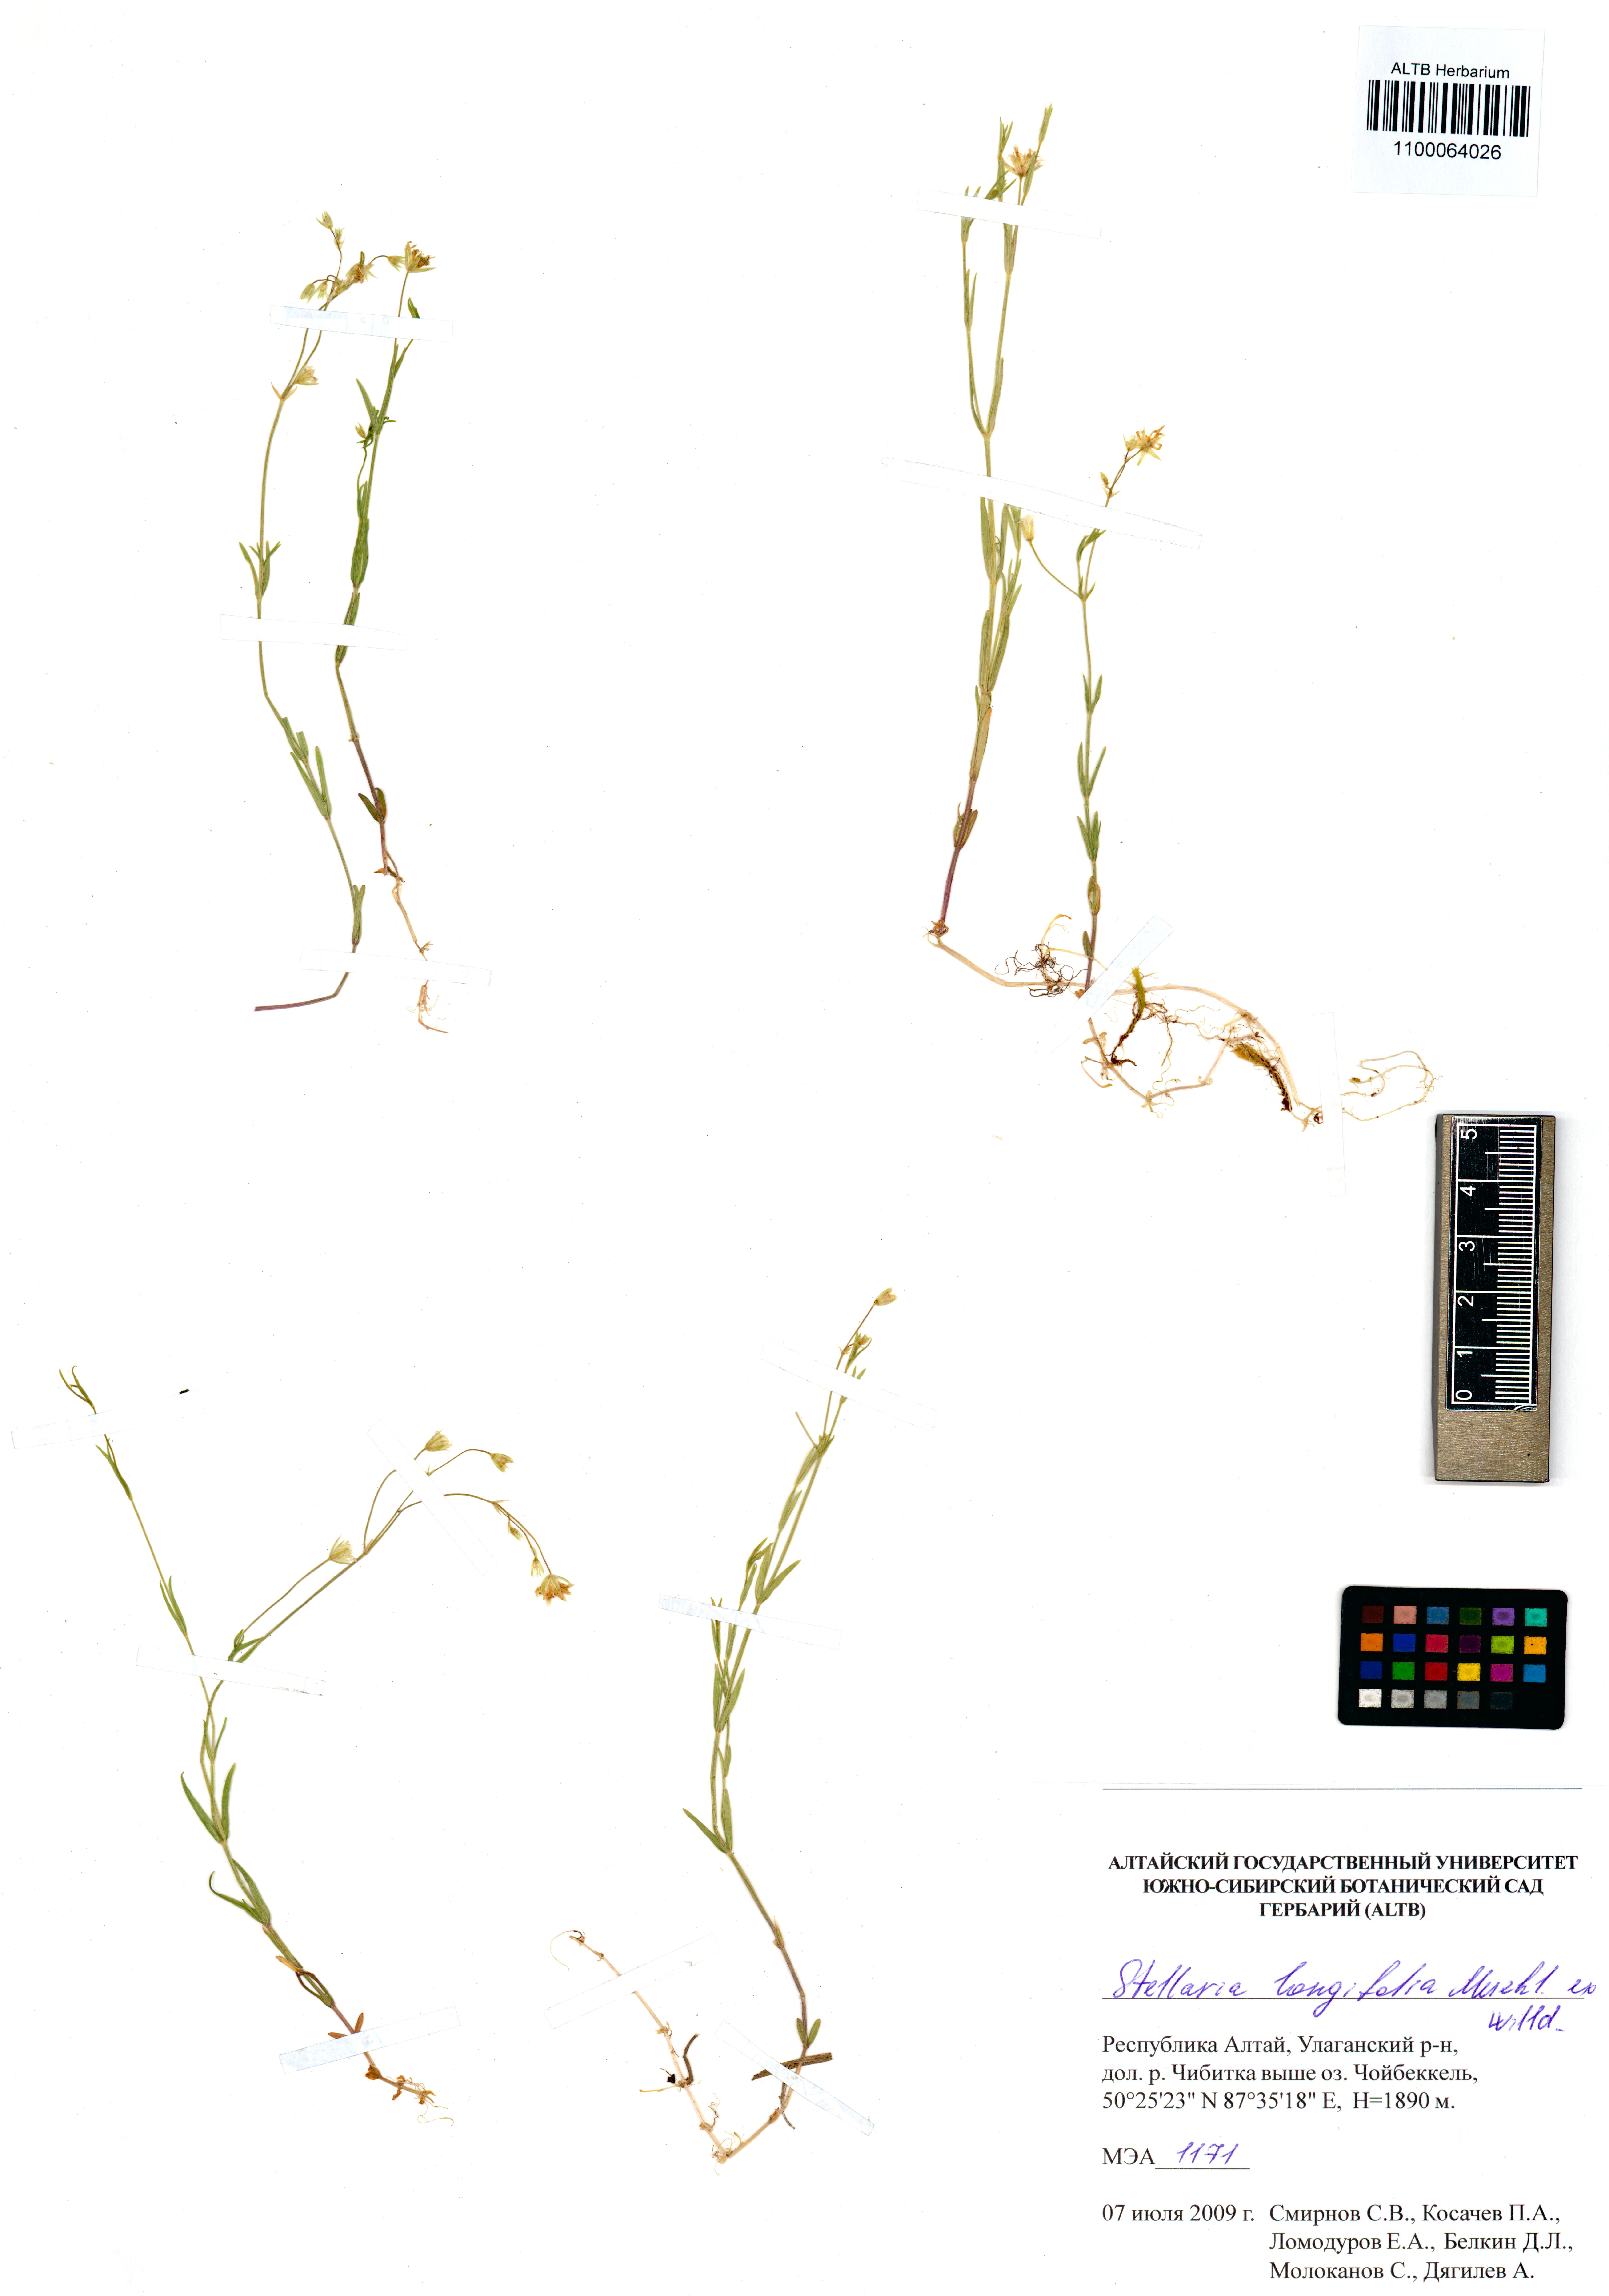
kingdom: Plantae
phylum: Tracheophyta
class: Magnoliopsida
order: Caryophyllales
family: Caryophyllaceae
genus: Stellaria
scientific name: Stellaria longifolia
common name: Long-leaved chickweed
